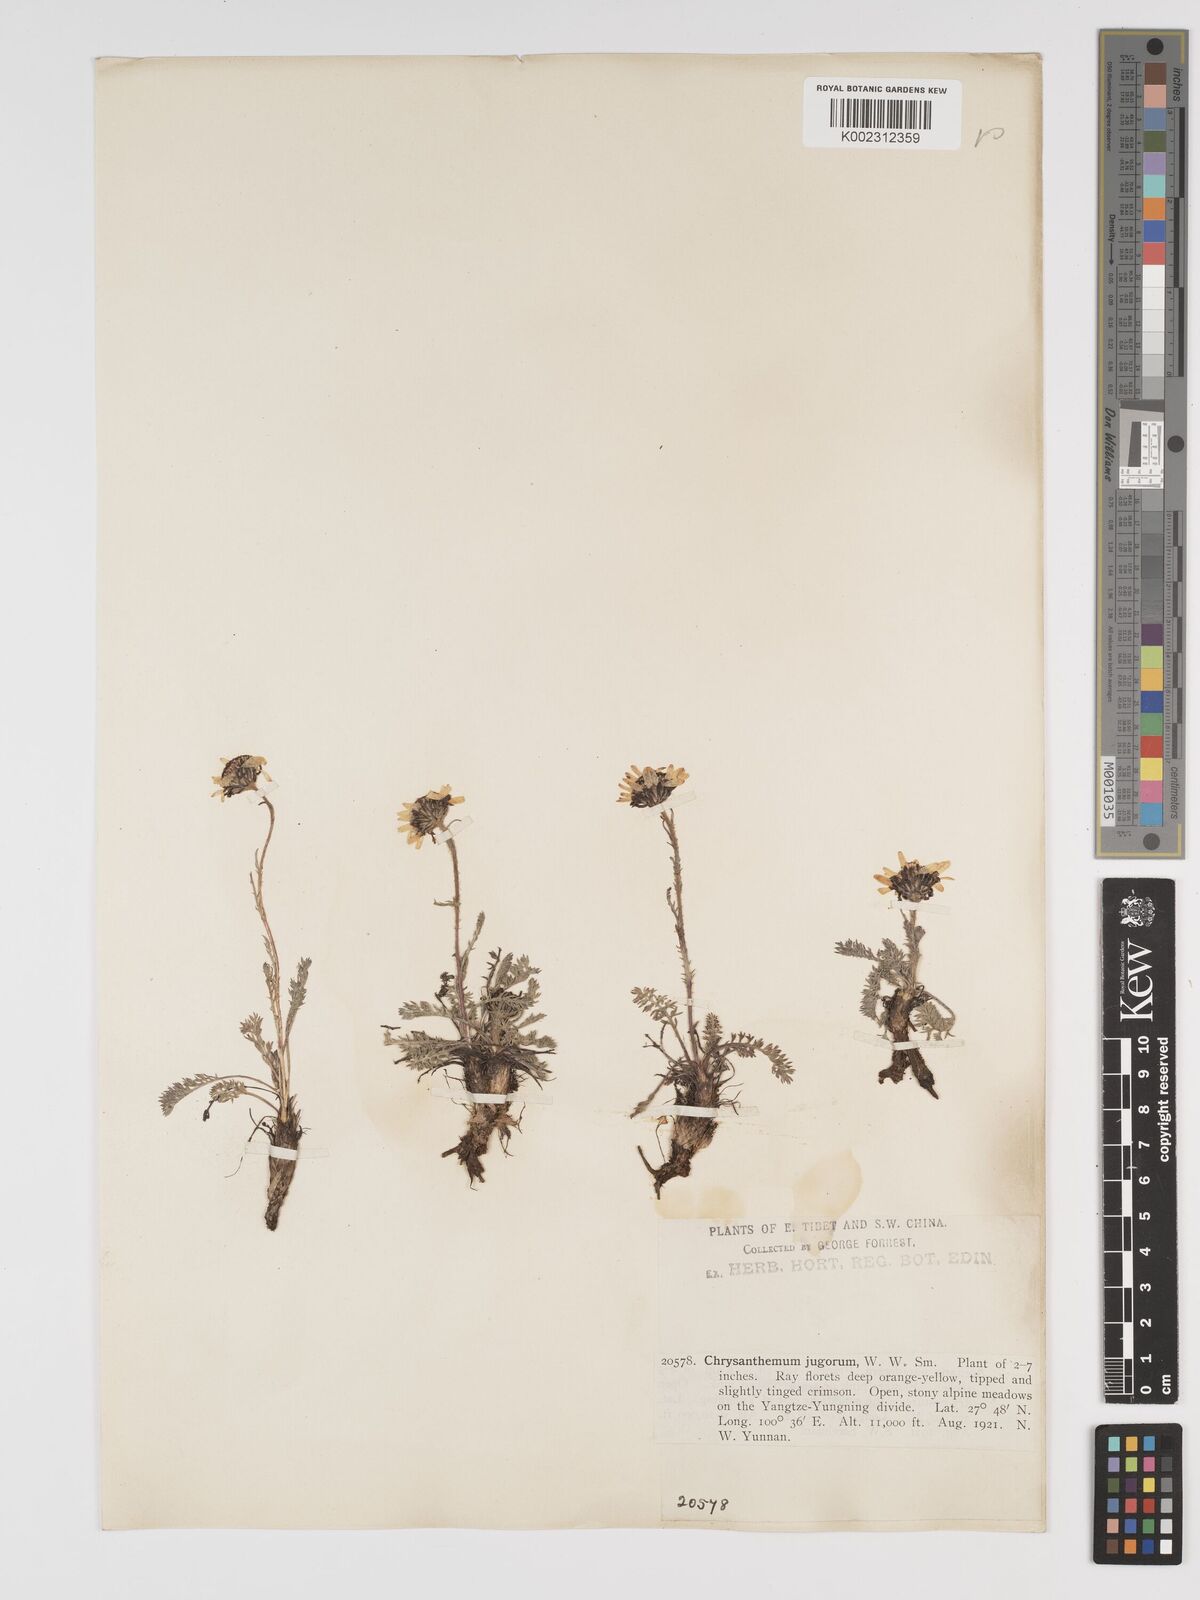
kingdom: Plantae
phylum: Tracheophyta
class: Magnoliopsida
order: Asterales
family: Asteraceae
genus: Tanacetum
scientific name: Tanacetum tatsienense
